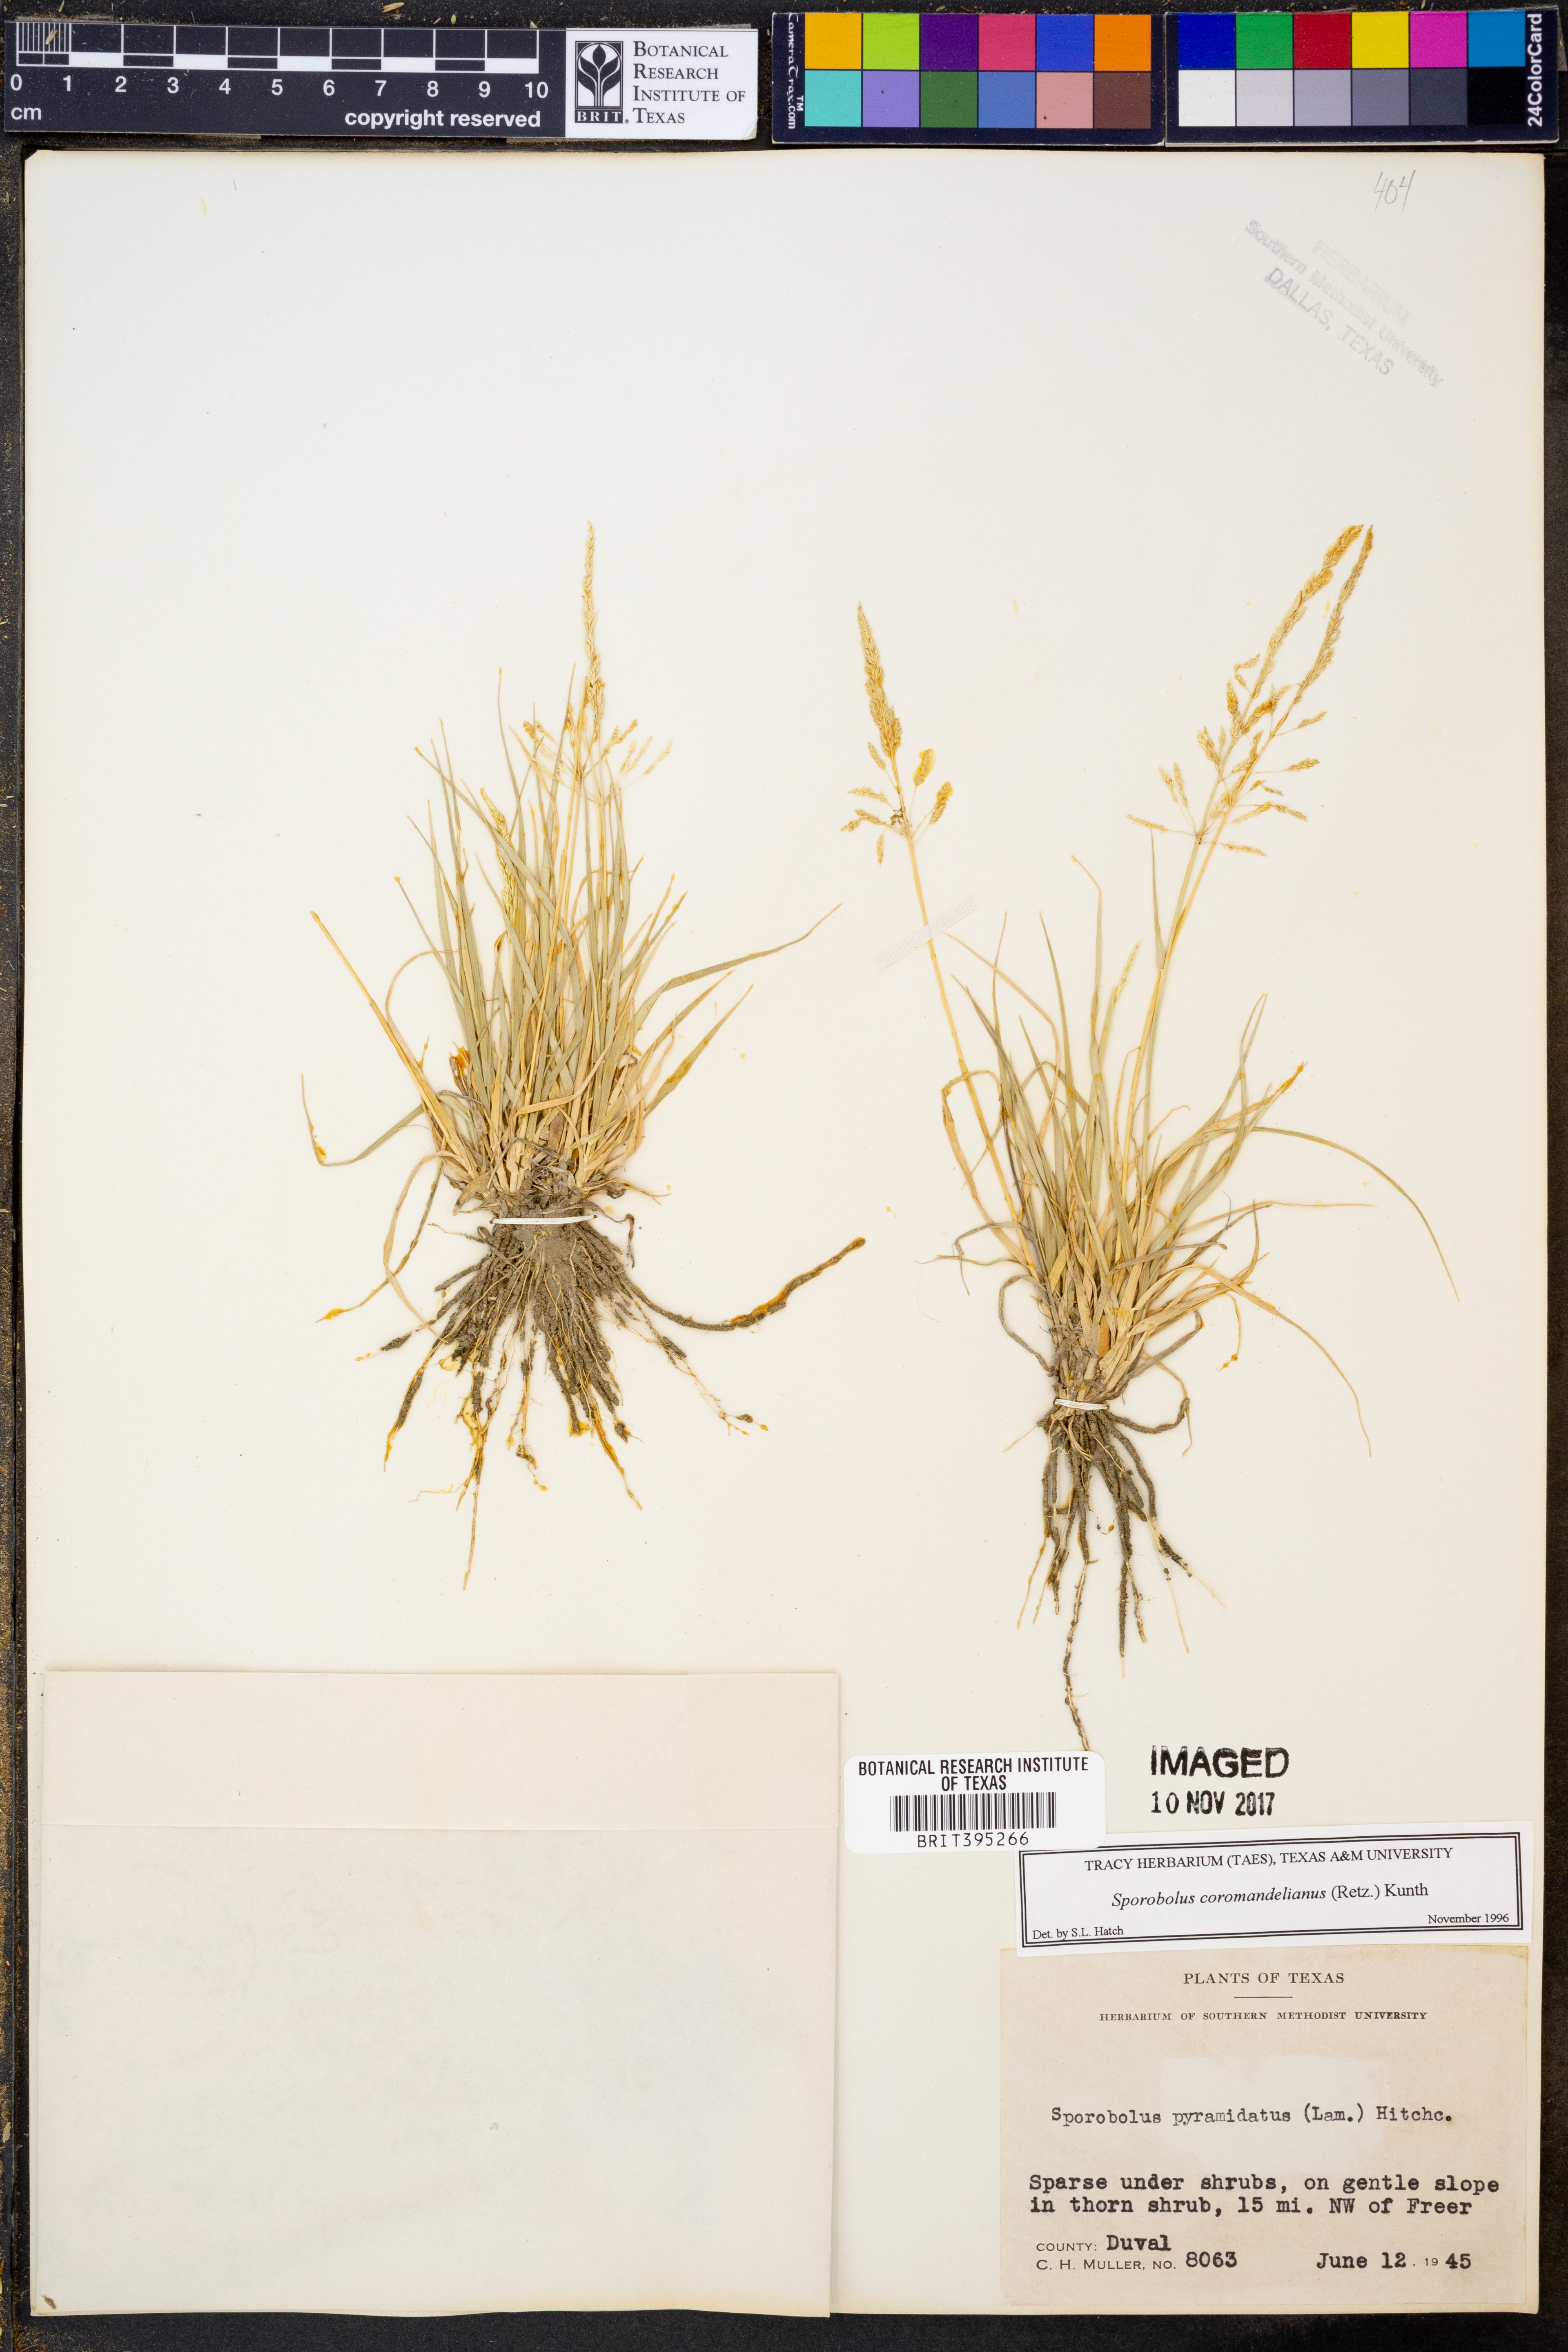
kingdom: Plantae
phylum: Tracheophyta
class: Liliopsida
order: Poales
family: Poaceae
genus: Sporobolus
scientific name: Sporobolus coromandelianus
